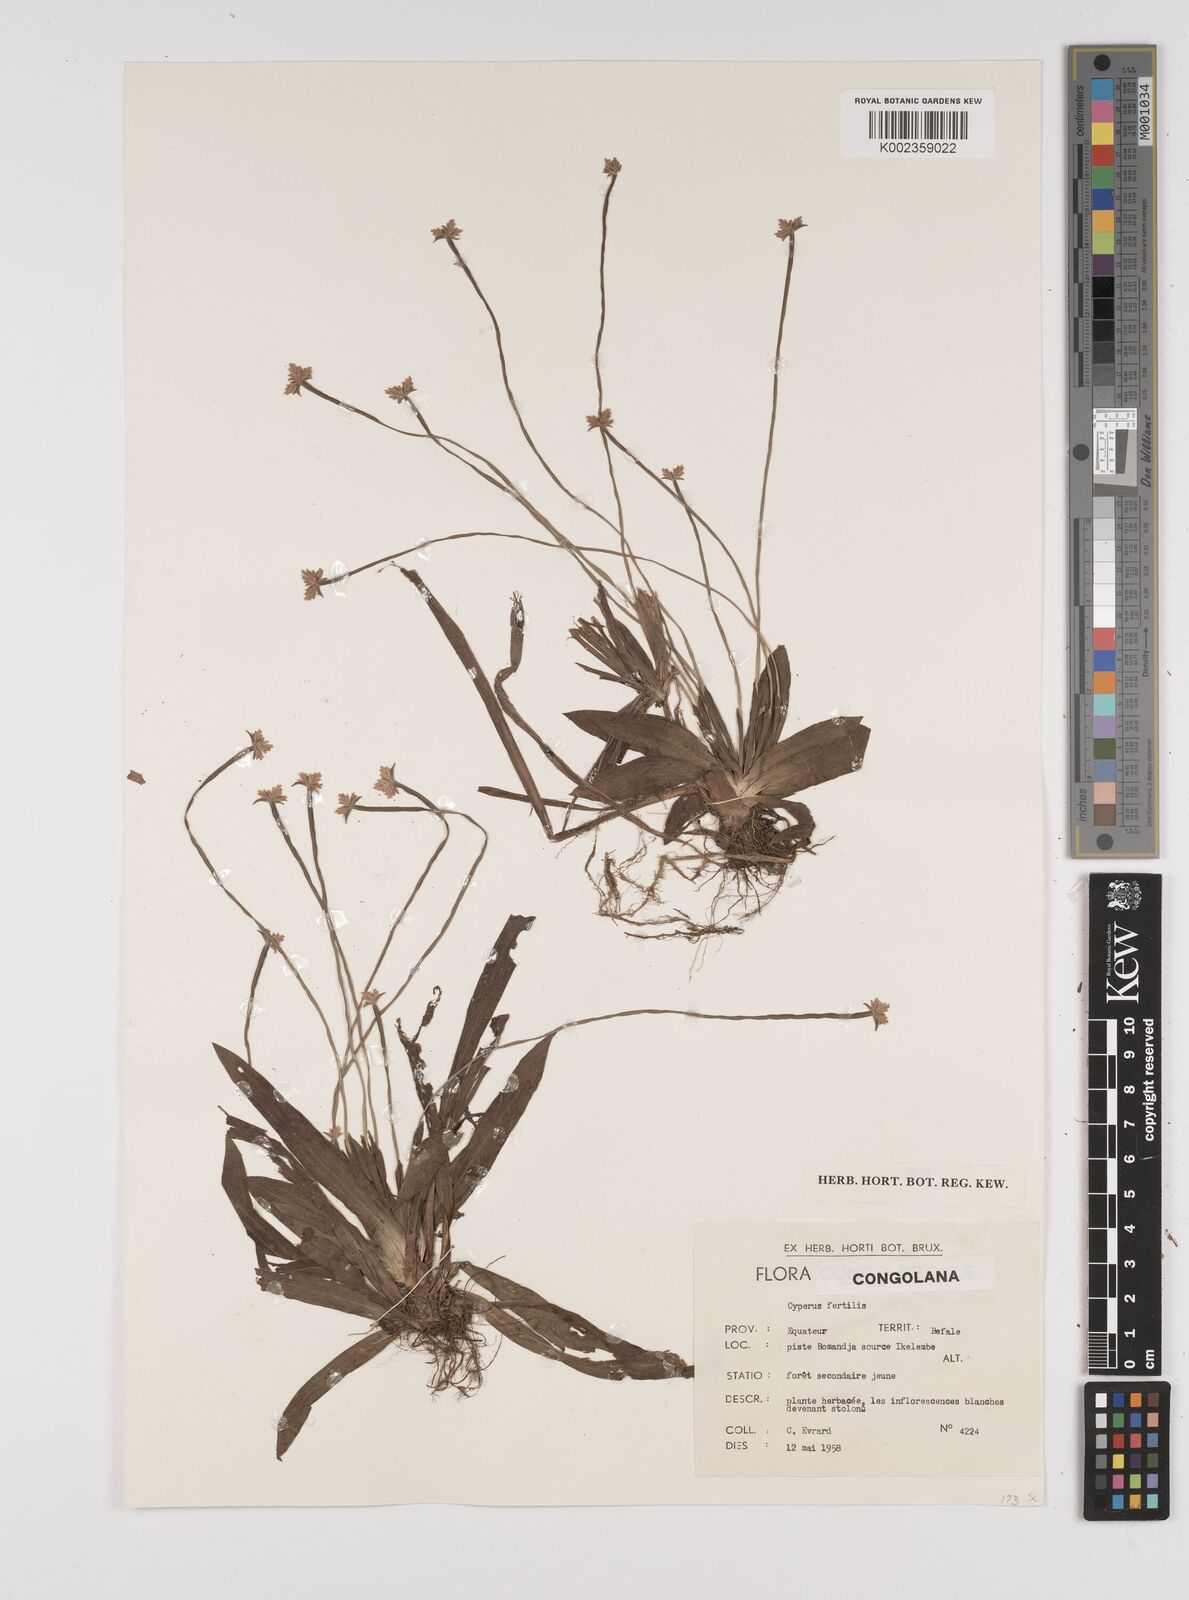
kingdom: Plantae
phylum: Tracheophyta
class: Liliopsida
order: Poales
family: Cyperaceae
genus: Cyperus
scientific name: Cyperus fertilis
